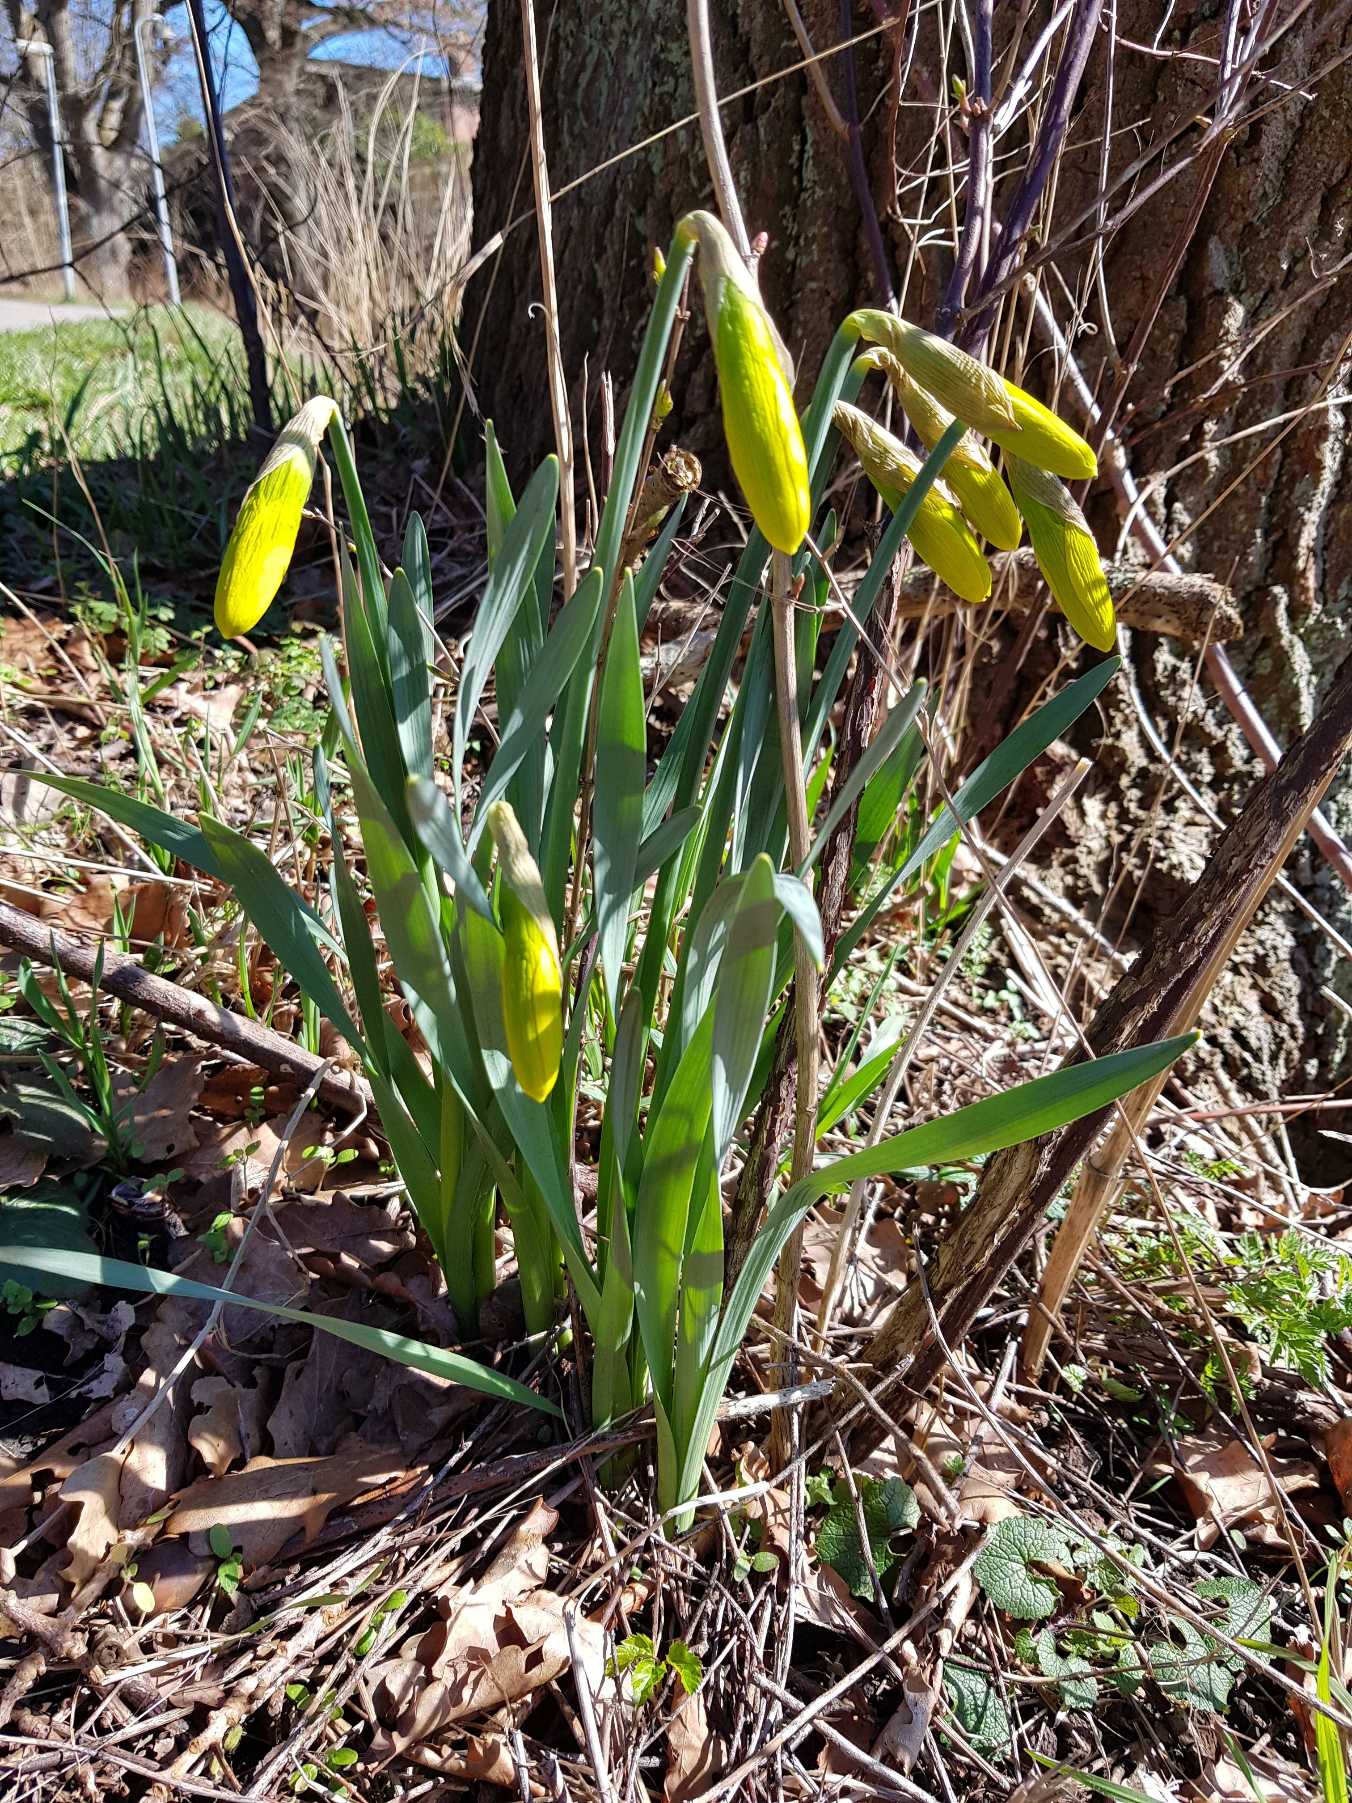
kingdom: Plantae
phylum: Tracheophyta
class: Liliopsida
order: Asparagales
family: Amaryllidaceae
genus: Narcissus
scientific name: Narcissus pseudonarcissus
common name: Påskelilje
